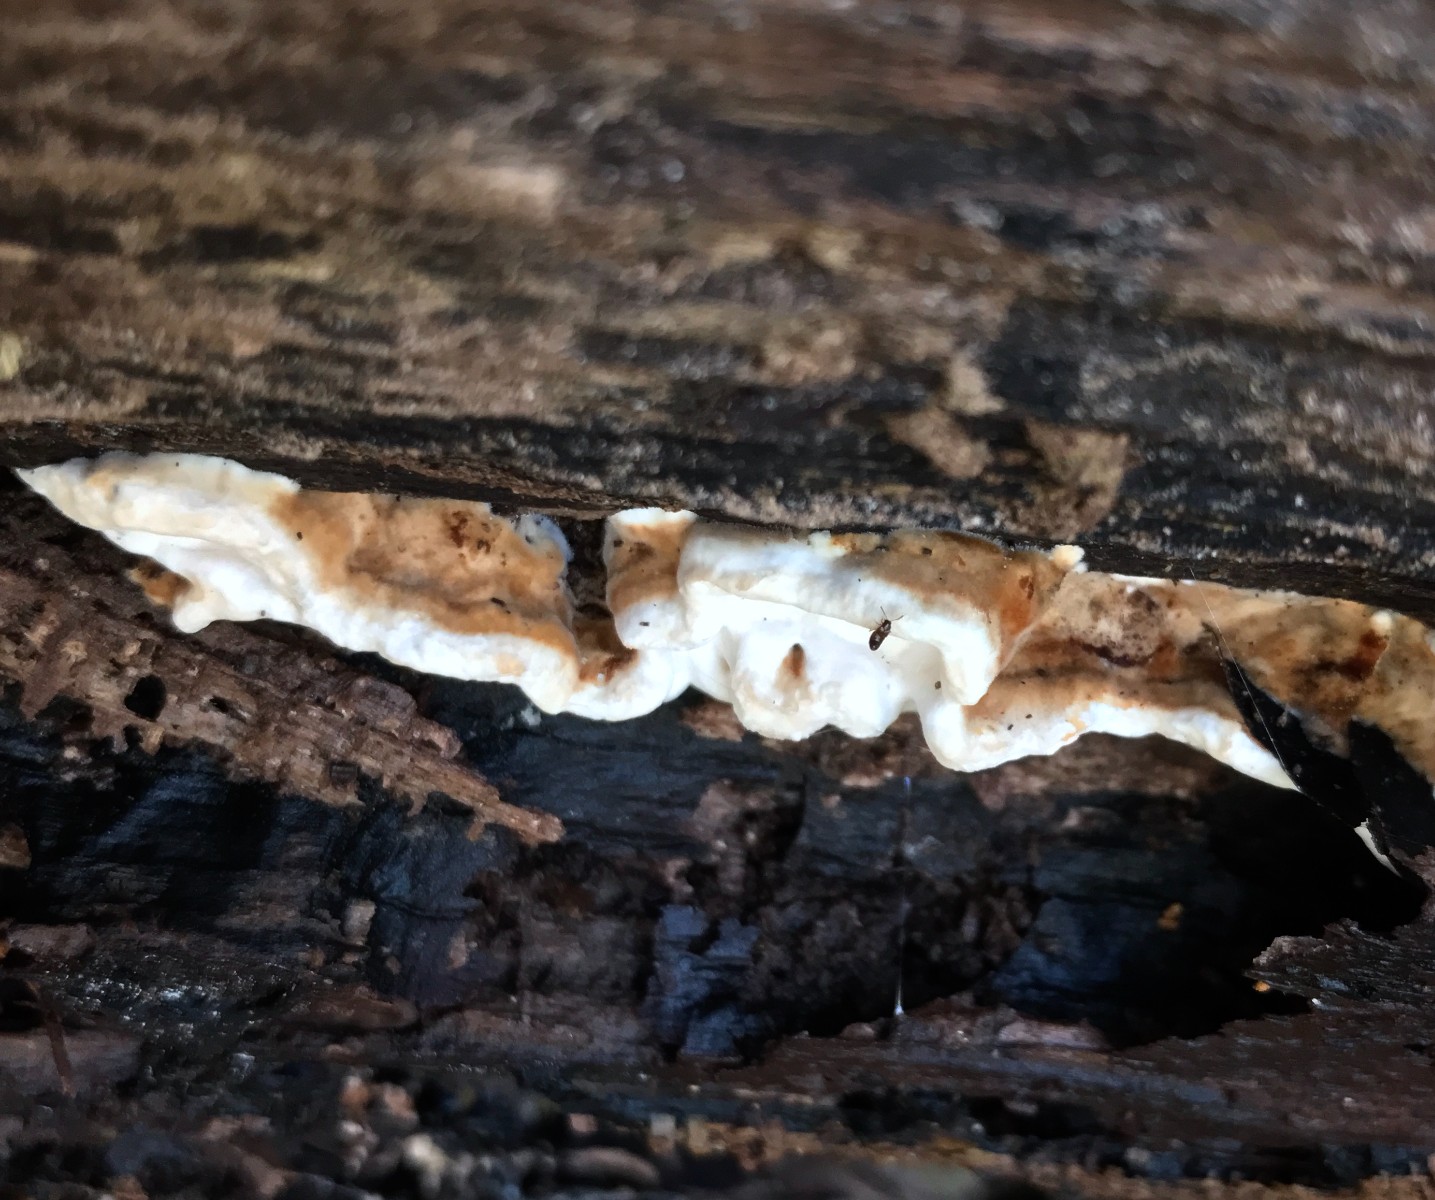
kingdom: Fungi
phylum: Basidiomycota
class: Agaricomycetes
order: Polyporales
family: Incrustoporiaceae
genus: Skeletocutis
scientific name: Skeletocutis nemoralis
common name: stor krystalporesvamp
